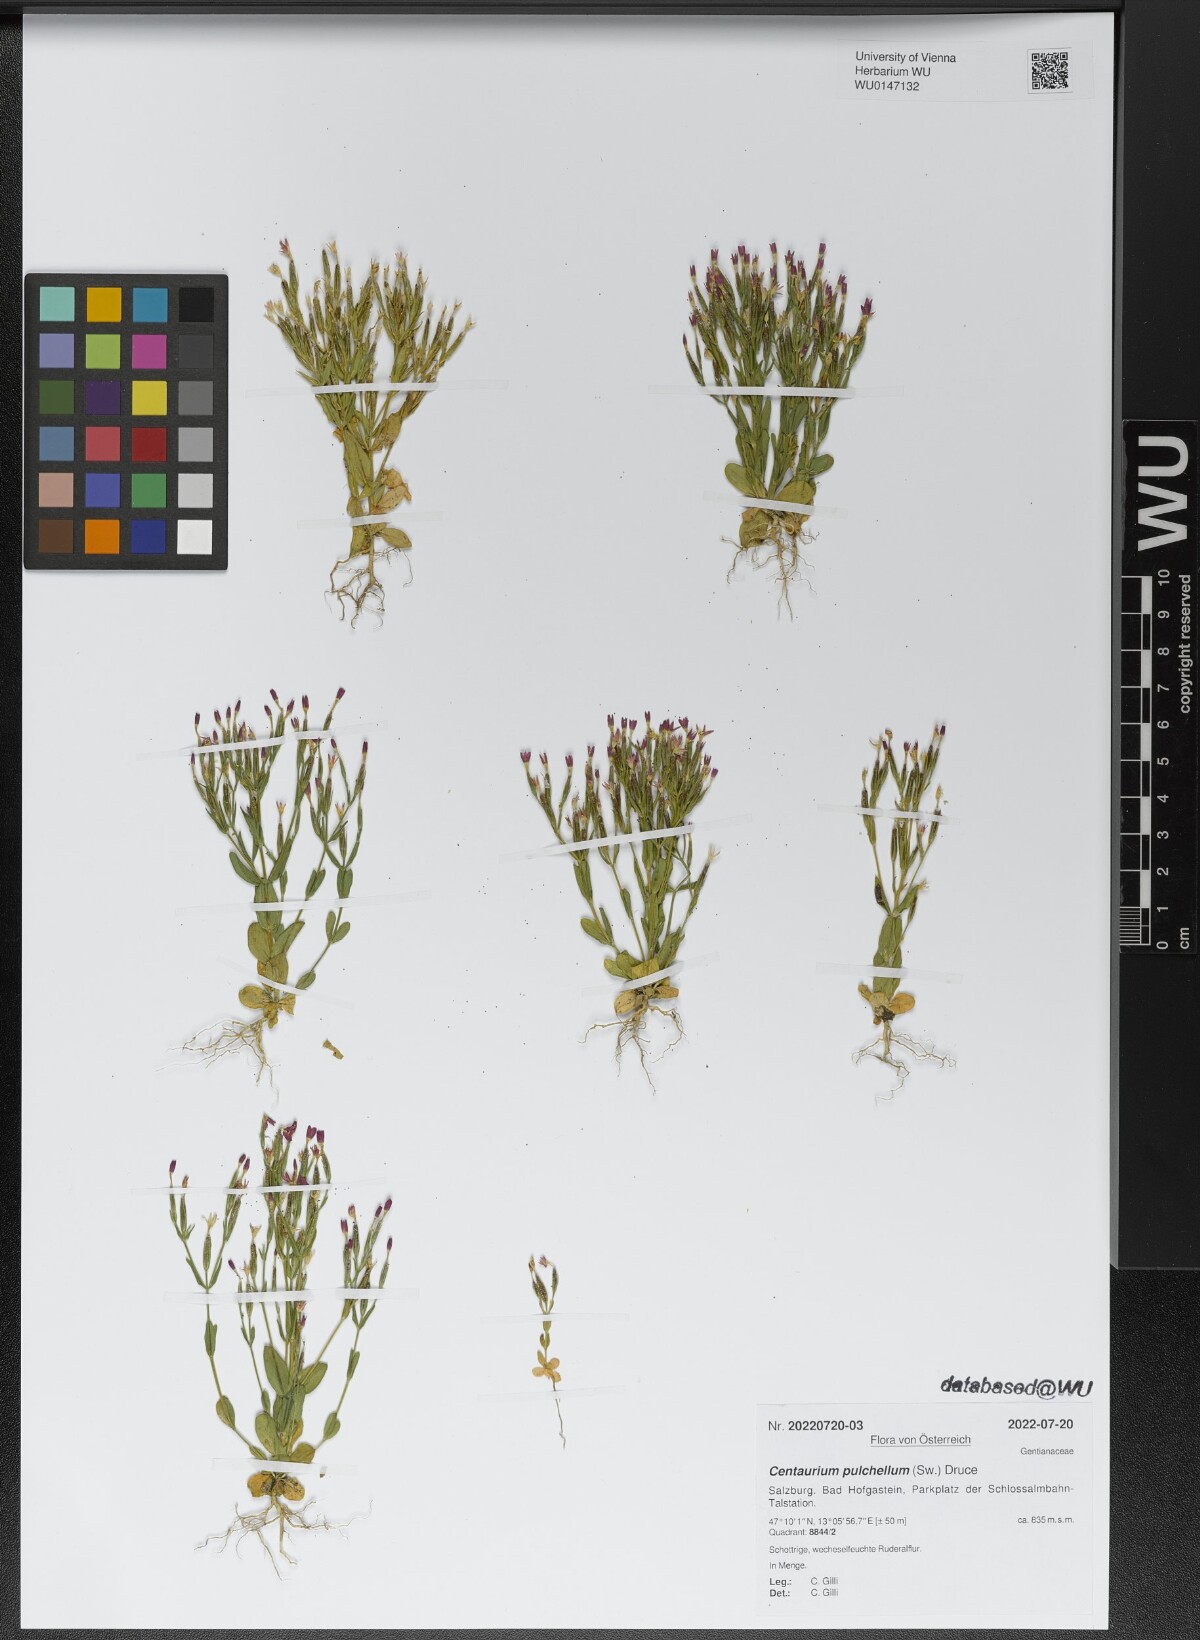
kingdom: Plantae
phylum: Tracheophyta
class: Magnoliopsida
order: Gentianales
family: Gentianaceae
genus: Centaurium
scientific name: Centaurium pulchellum
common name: Lesser centaury
